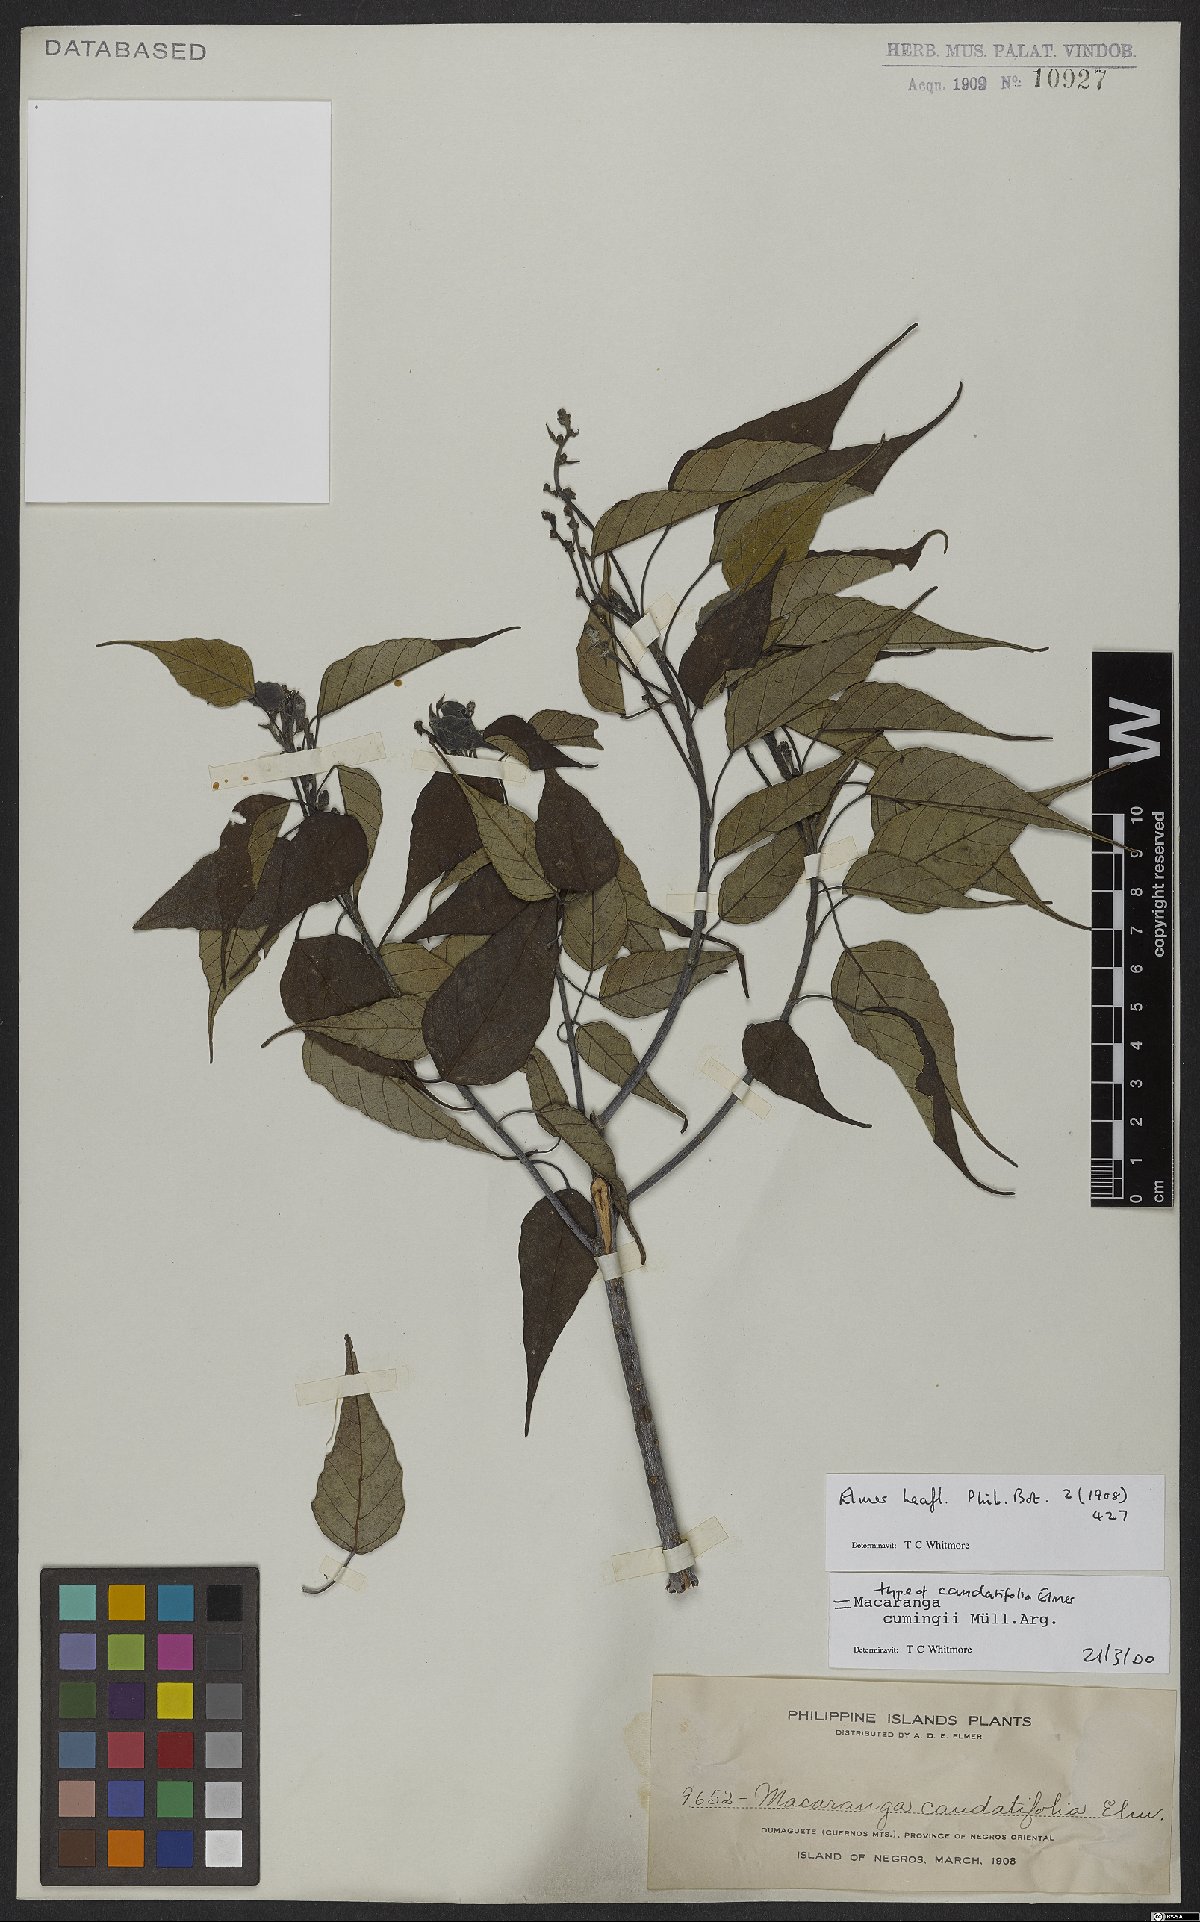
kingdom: Plantae
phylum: Tracheophyta
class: Magnoliopsida
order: Malpighiales
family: Euphorbiaceae
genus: Macaranga
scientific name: Macaranga cumingii
